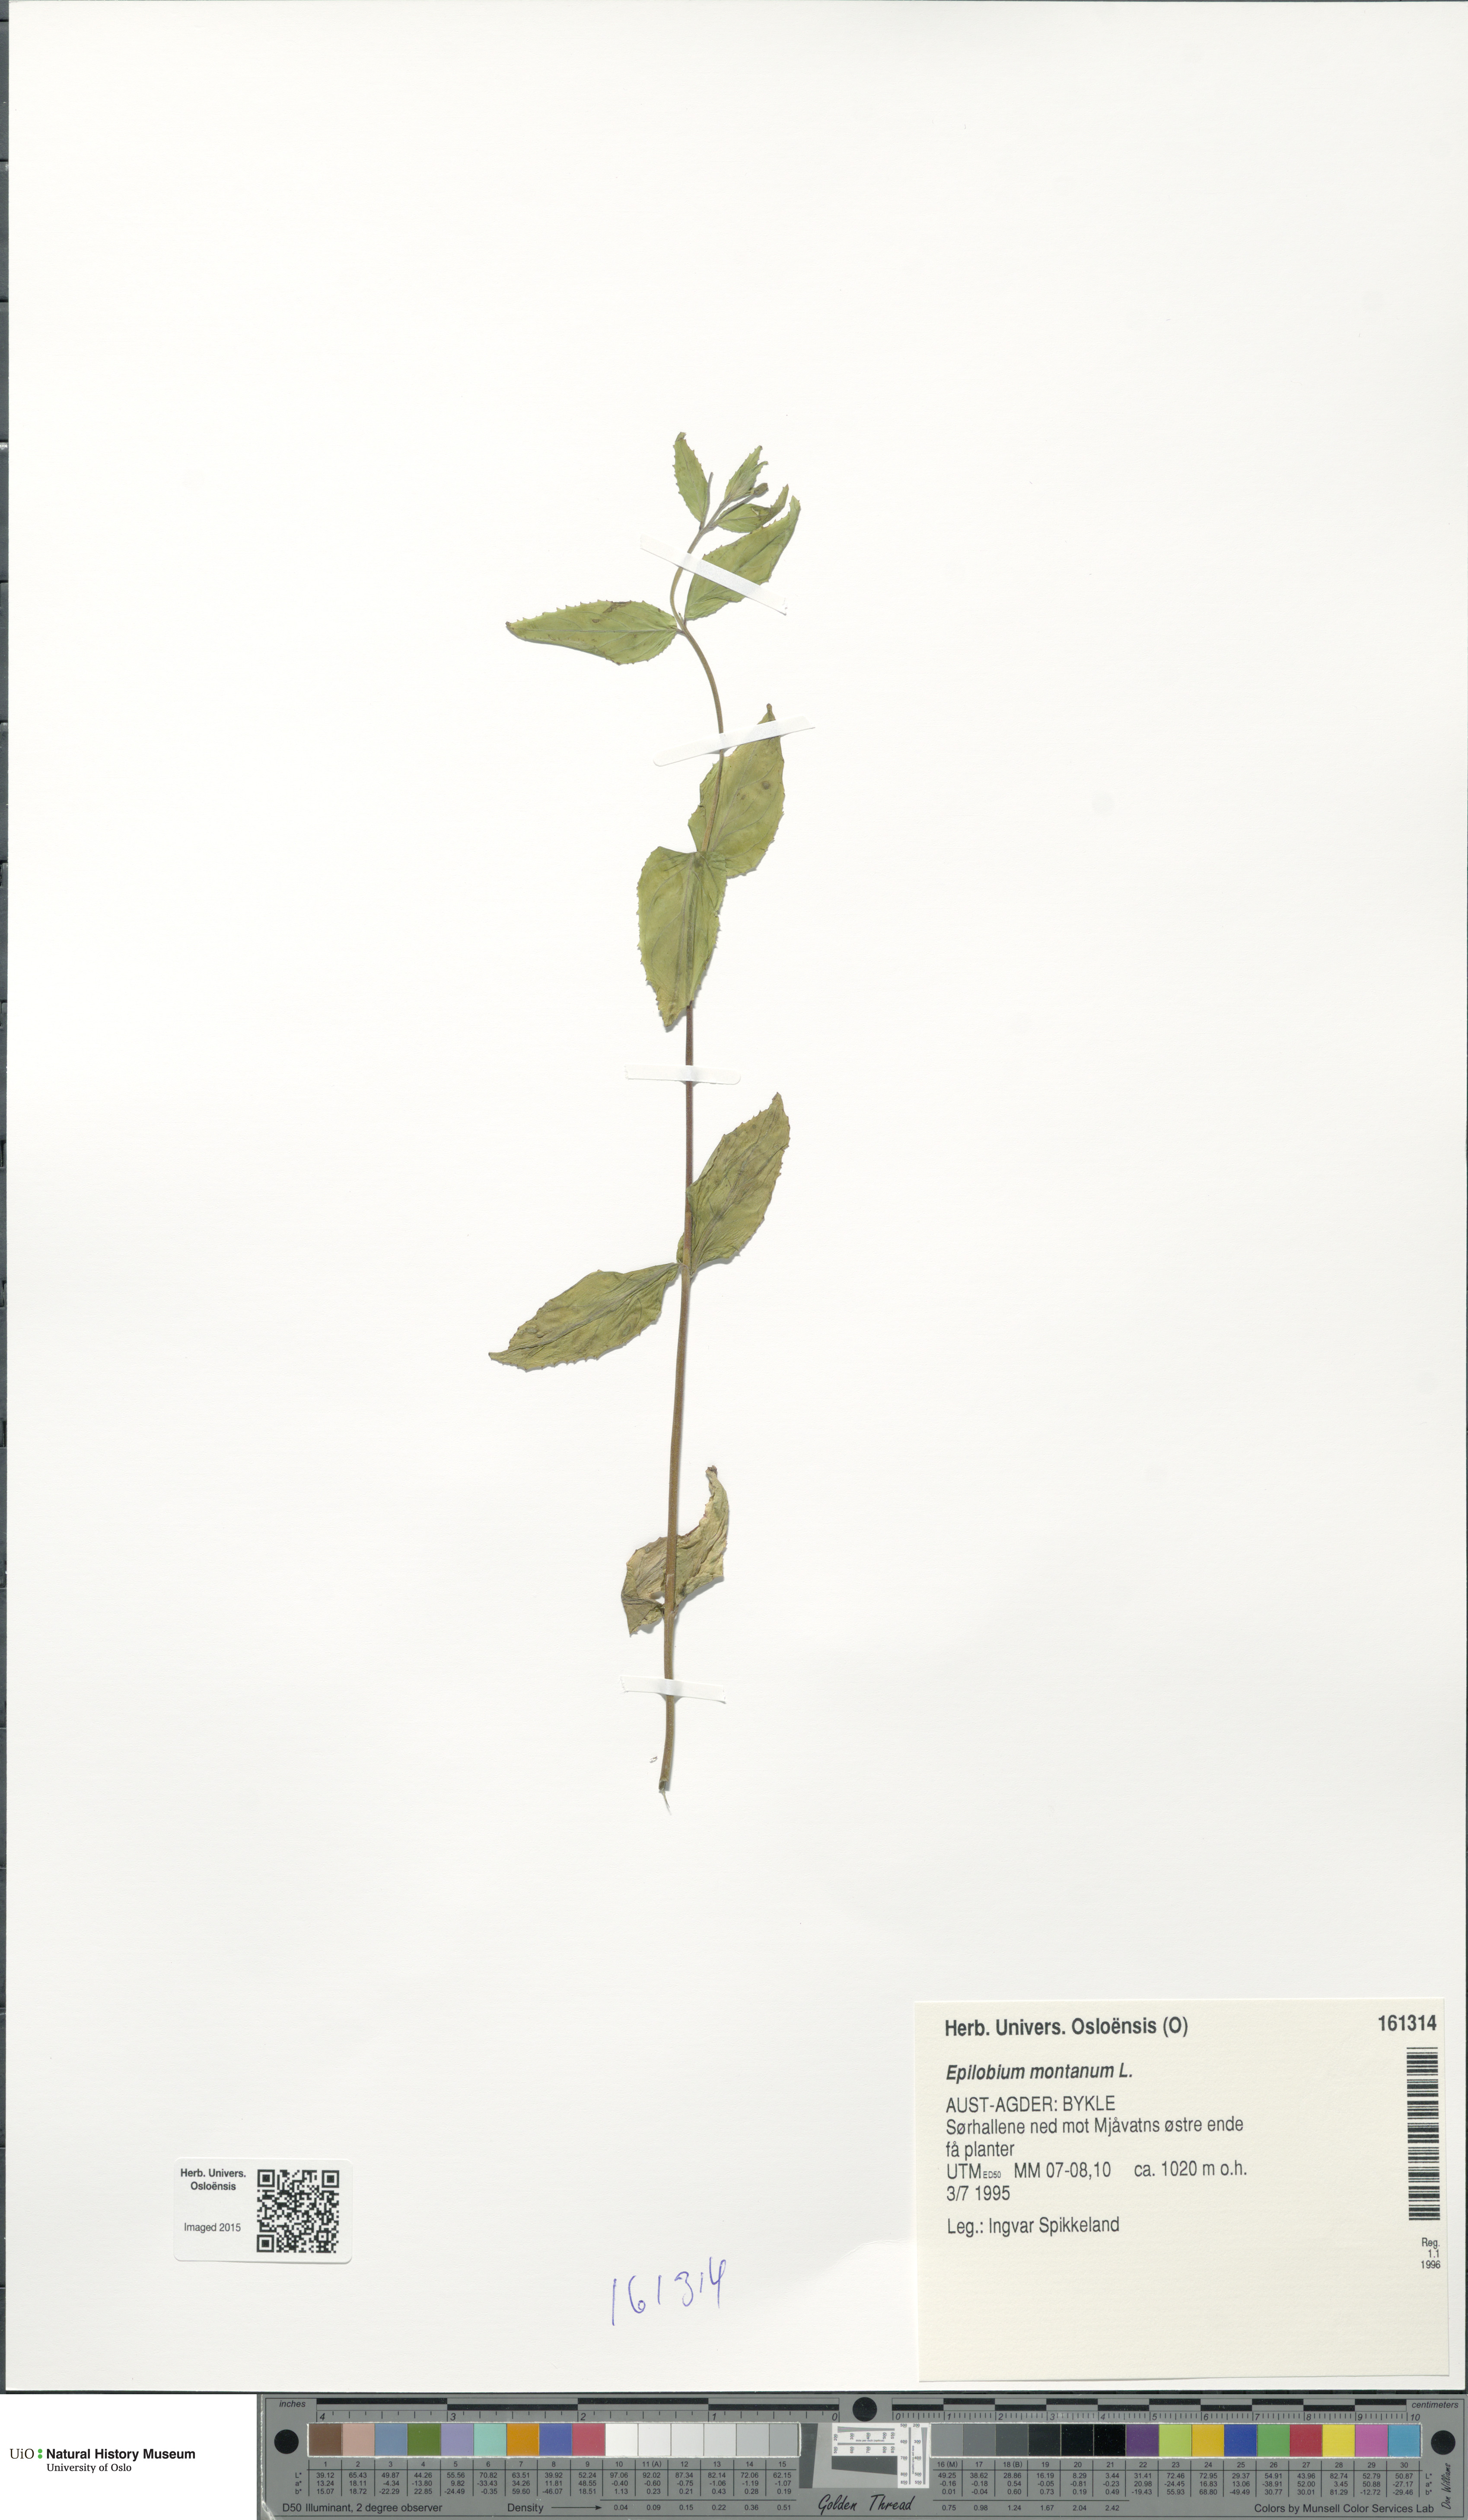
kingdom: Plantae
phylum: Tracheophyta
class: Magnoliopsida
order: Myrtales
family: Onagraceae
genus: Epilobium
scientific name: Epilobium montanum
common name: Broad-leaved willowherb
